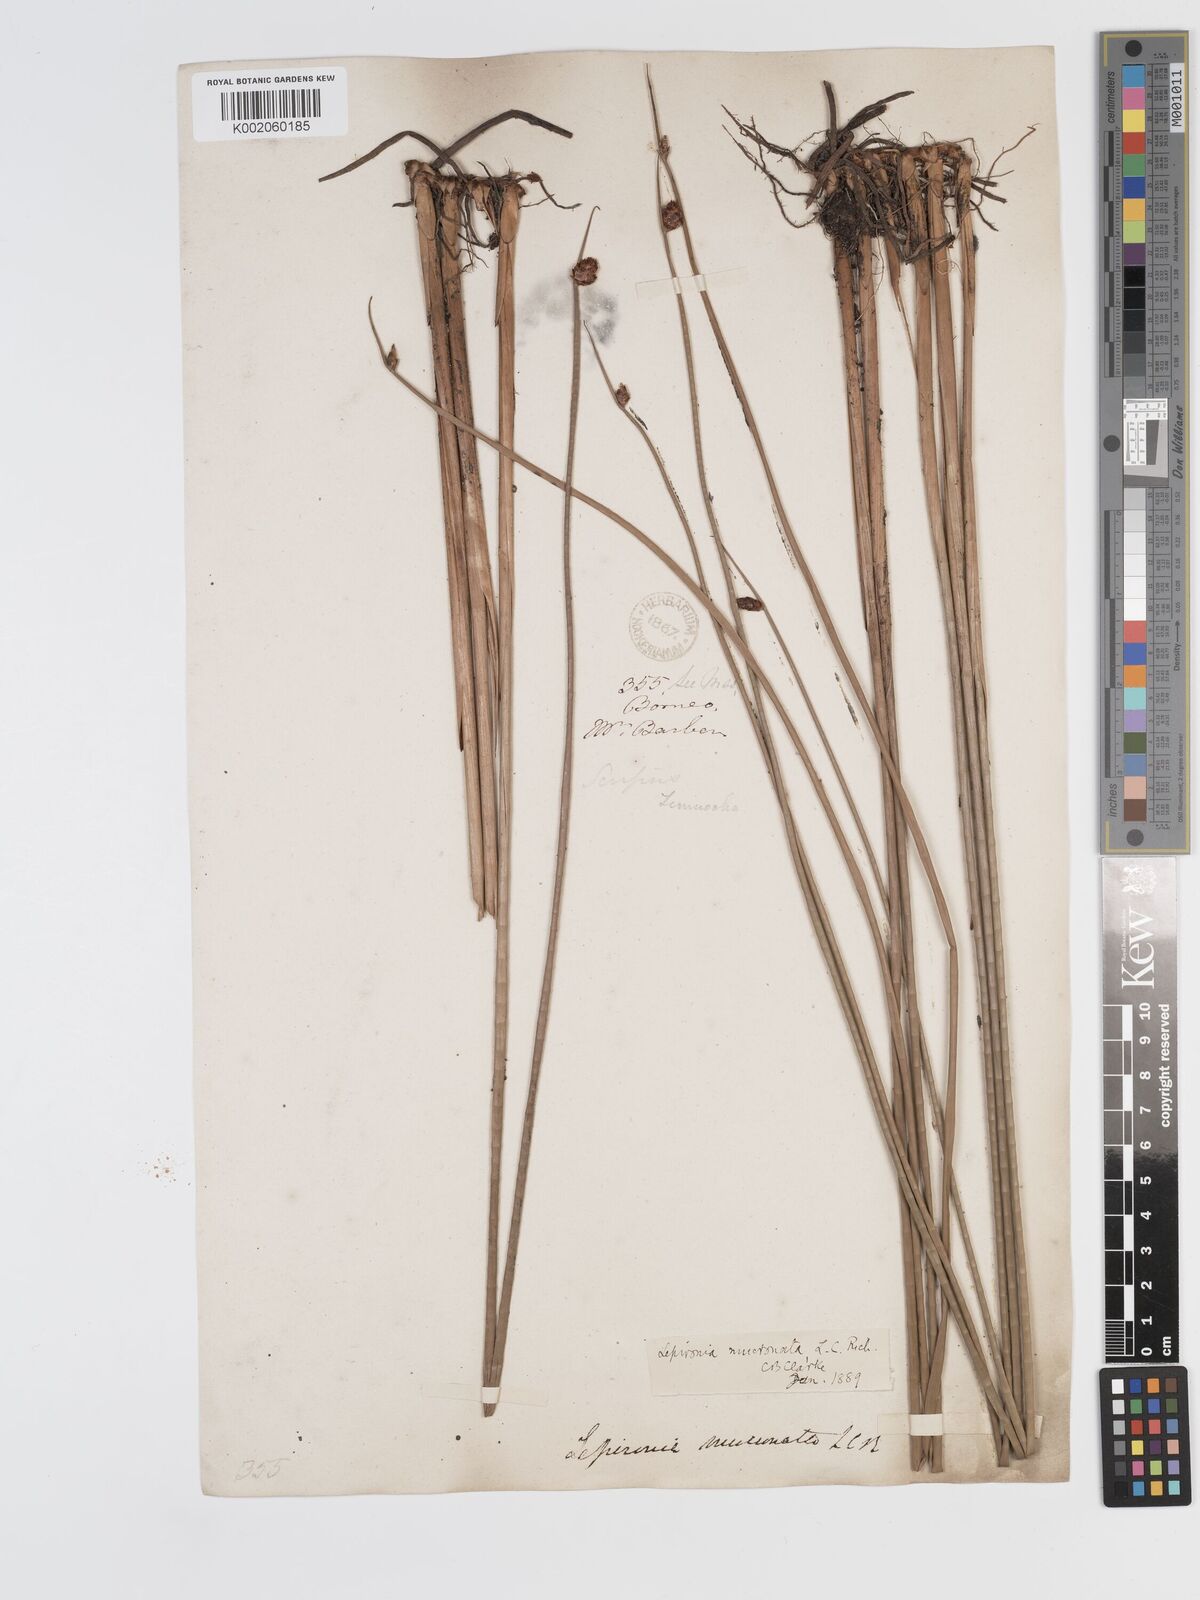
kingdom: Plantae
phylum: Tracheophyta
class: Liliopsida
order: Poales
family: Cyperaceae
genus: Lepironia
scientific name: Lepironia articulata
